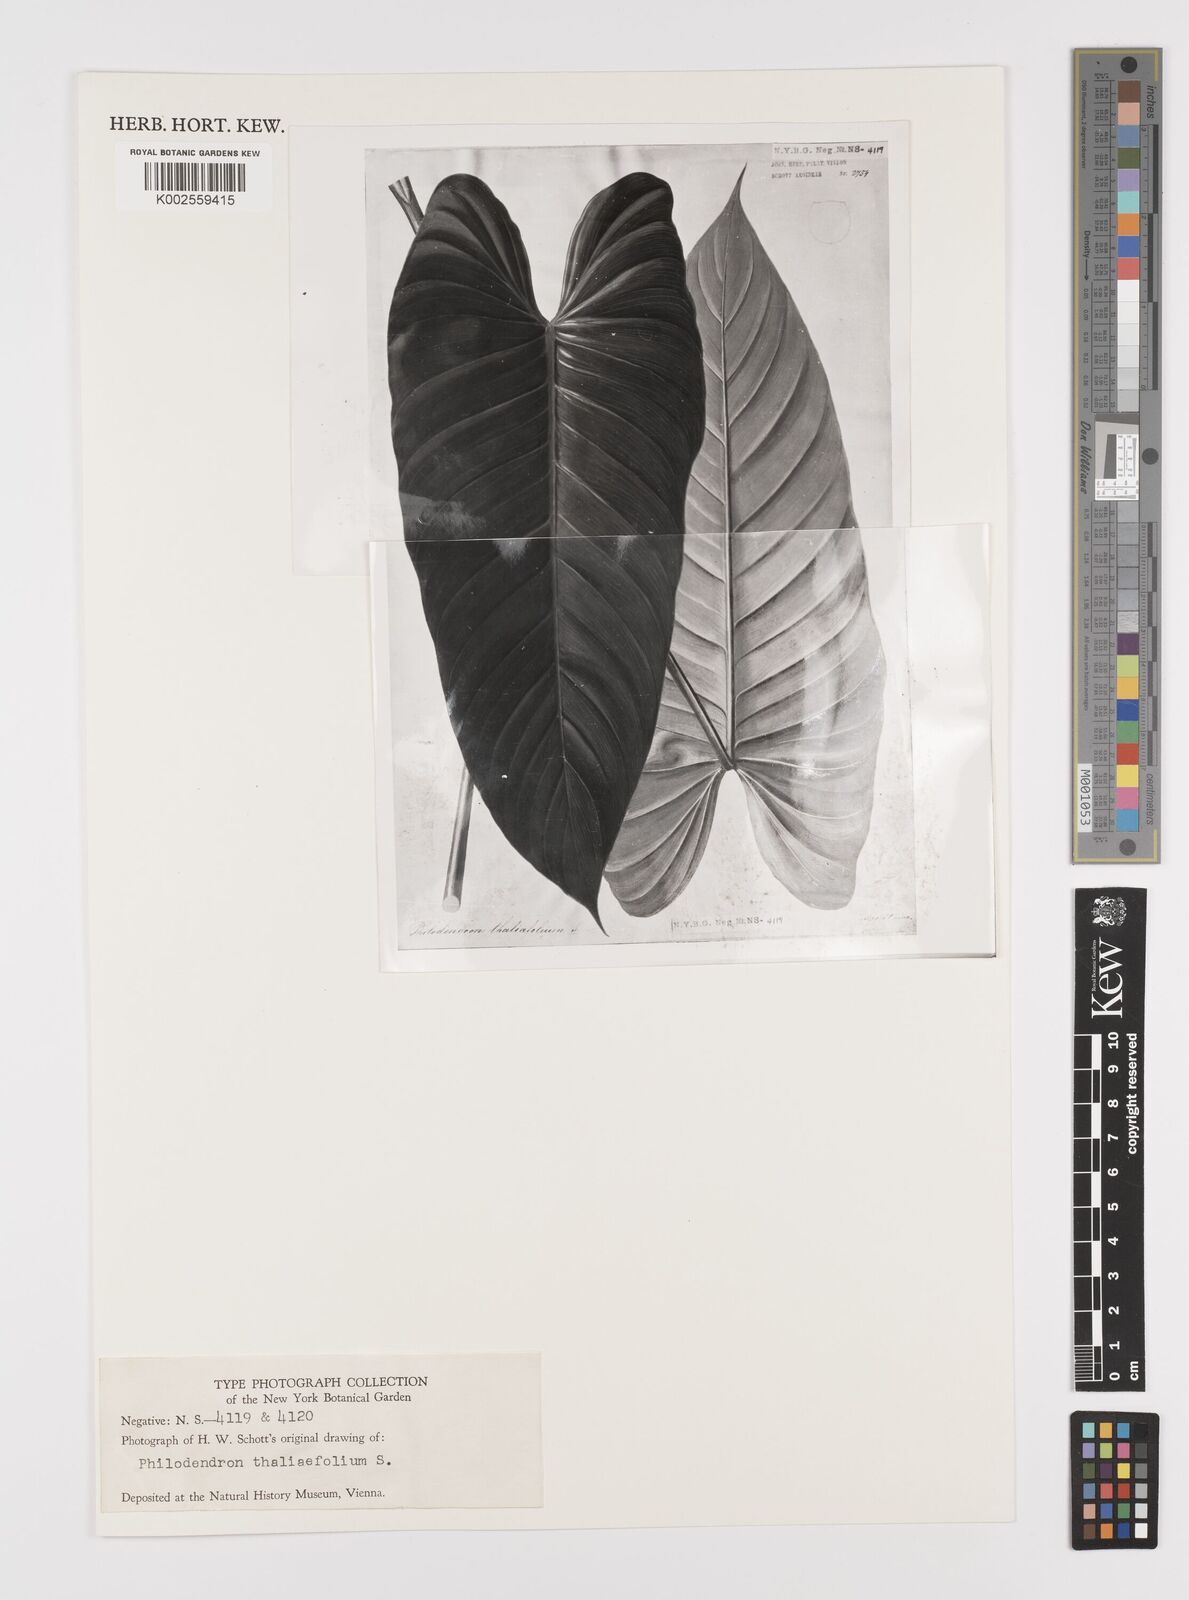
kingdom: Plantae
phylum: Tracheophyta
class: Liliopsida
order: Alismatales
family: Araceae
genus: Philodendron
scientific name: Philodendron thaliifolium
